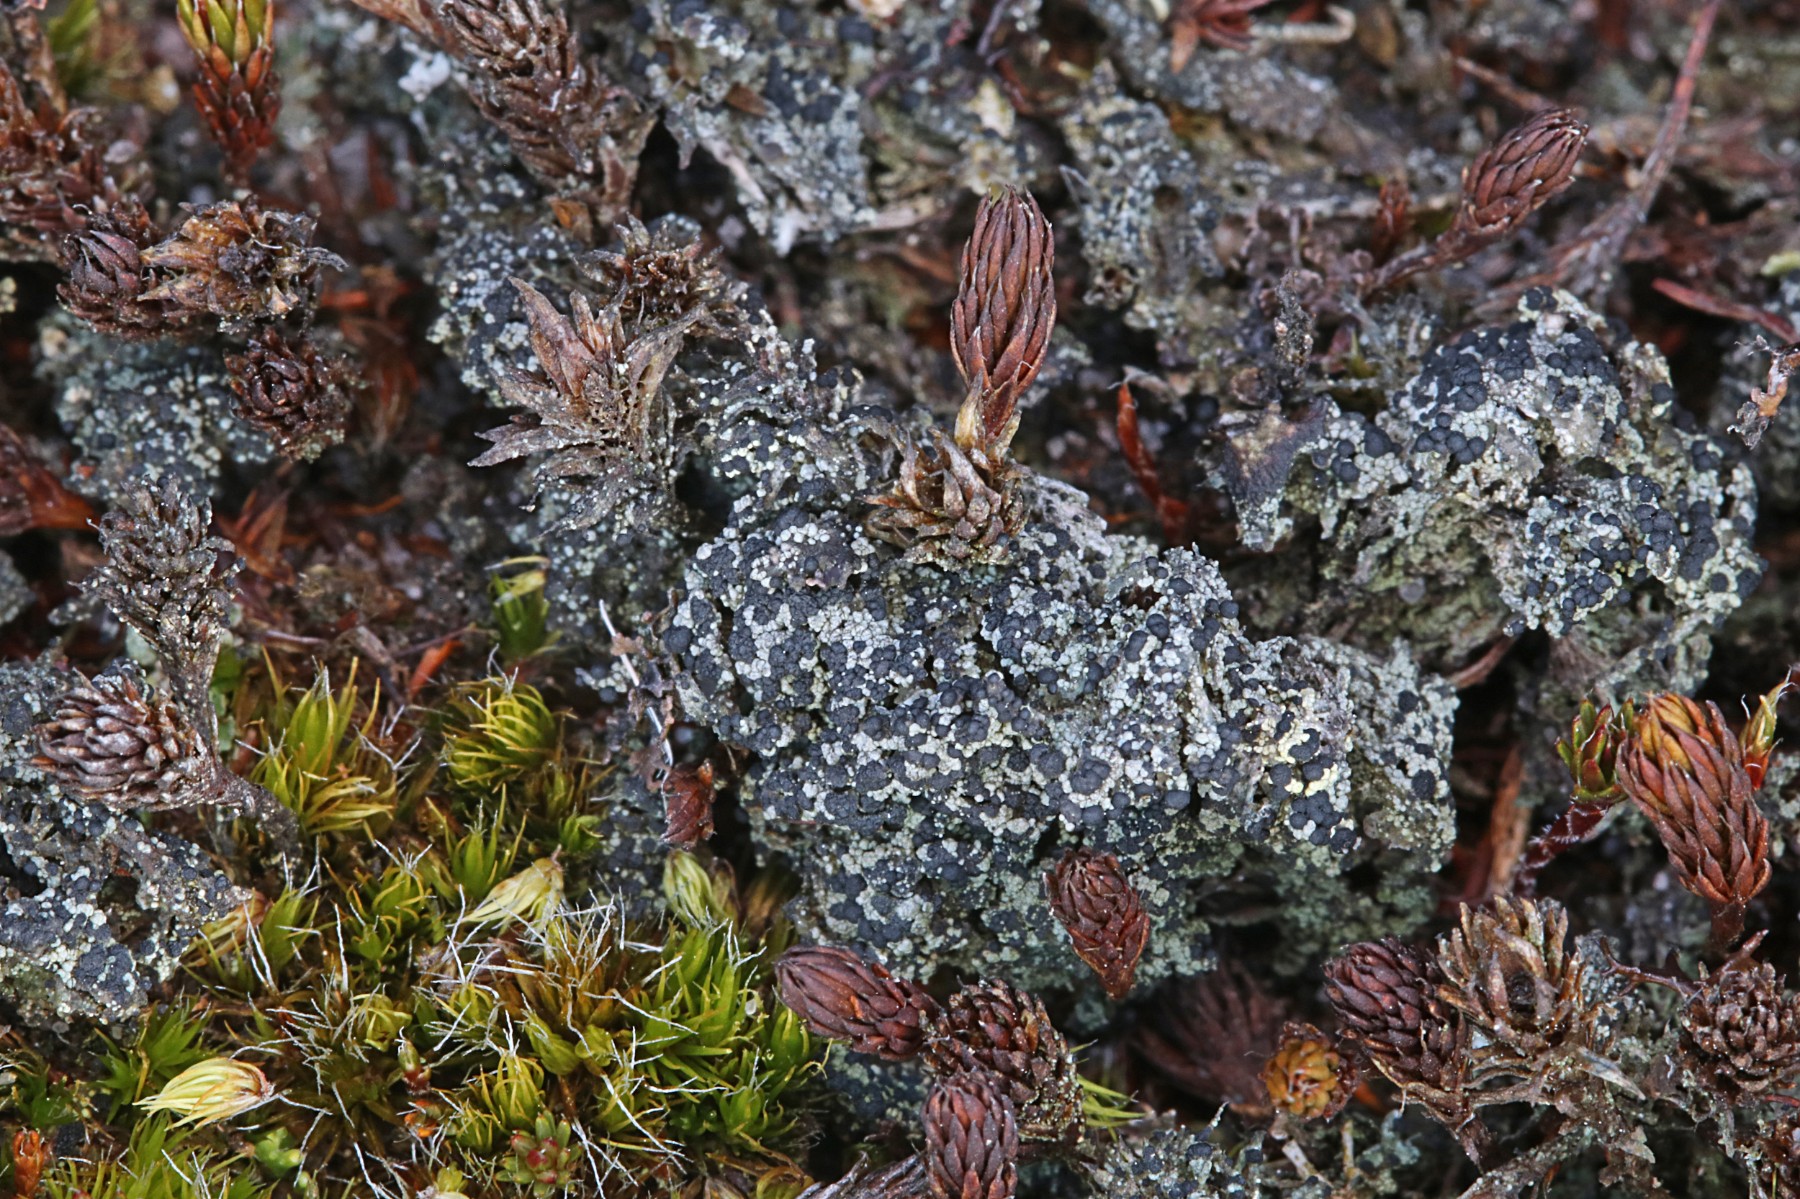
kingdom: Fungi
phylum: Ascomycota
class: Lecanoromycetes
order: Lecanorales
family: Byssolomataceae
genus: Micarea
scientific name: Micarea lignaria
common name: tørve-knaplav
